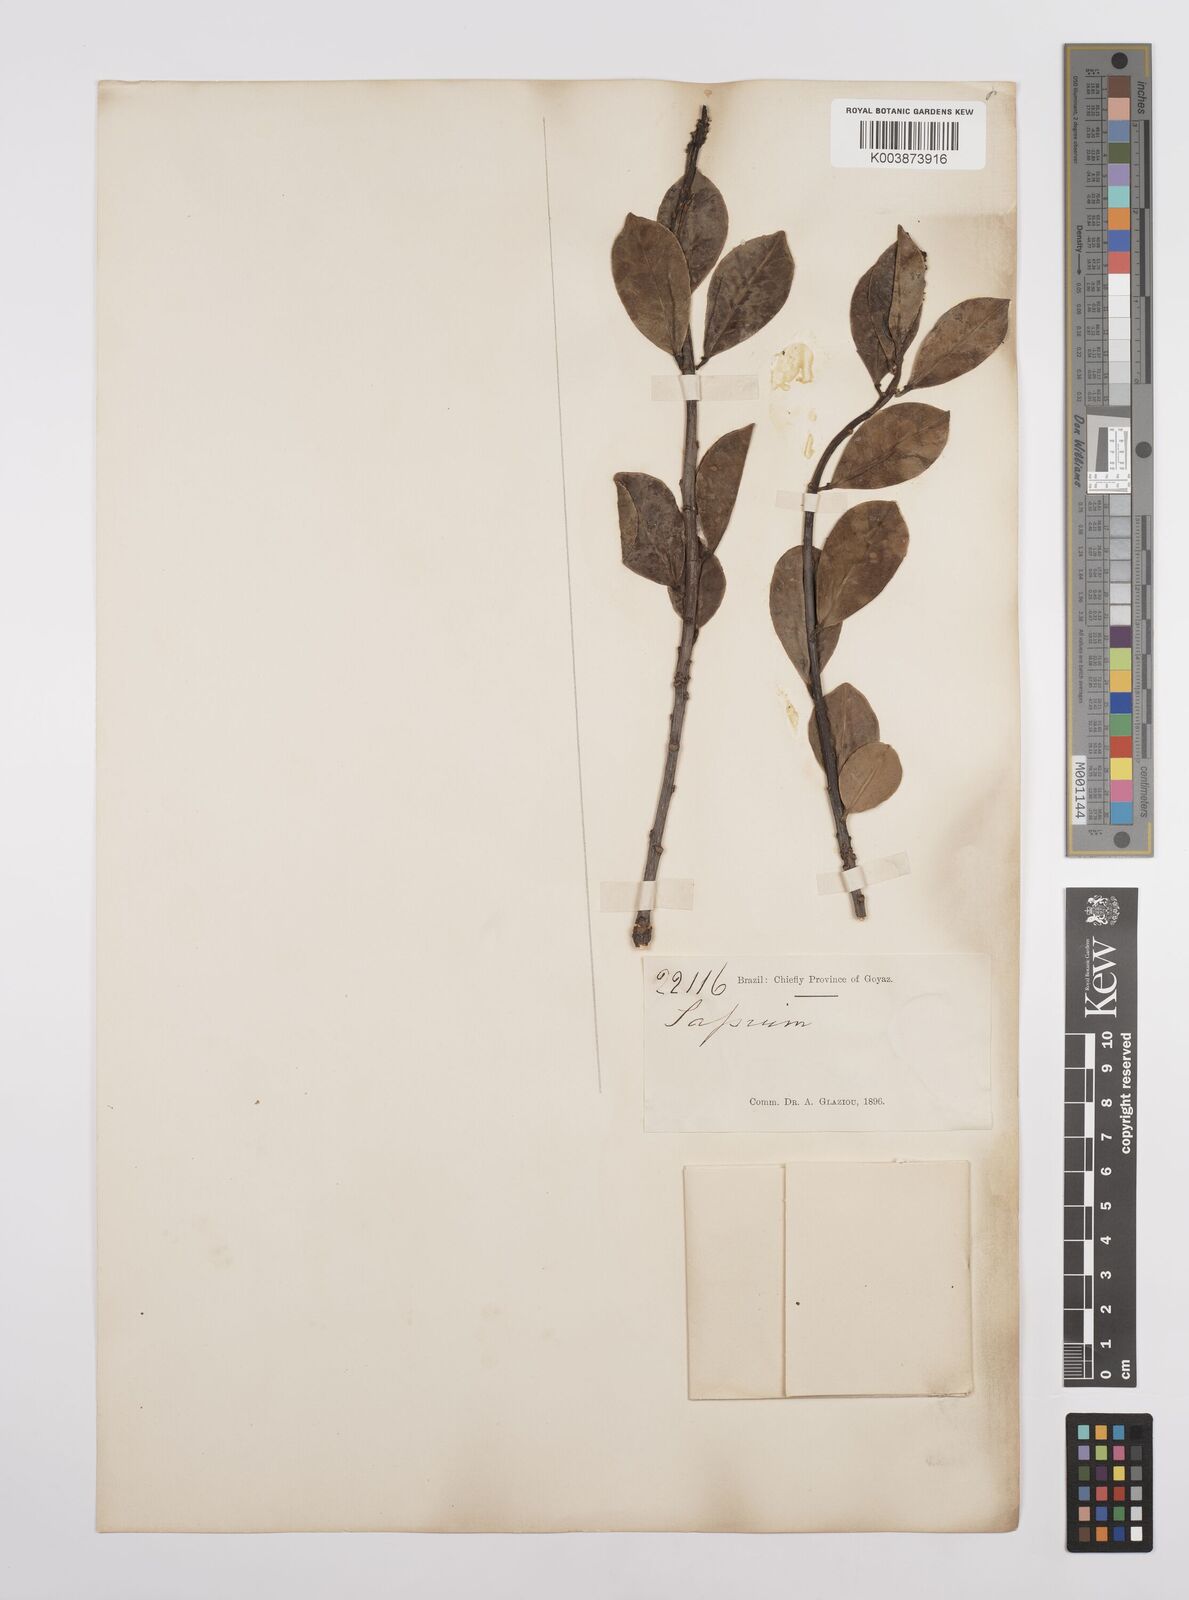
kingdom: Plantae
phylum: Tracheophyta
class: Magnoliopsida
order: Malpighiales
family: Euphorbiaceae
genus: Sapium
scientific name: Sapium obovatum
